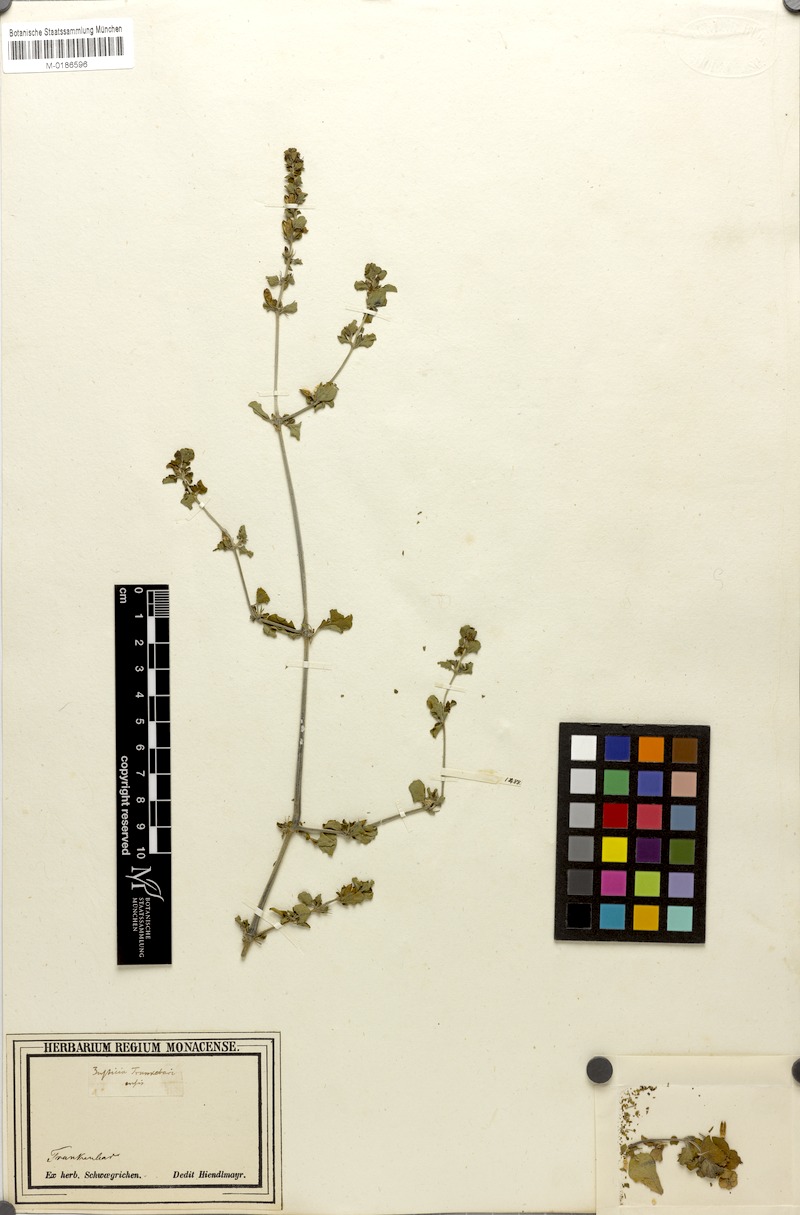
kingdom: Plantae
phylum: Tracheophyta
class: Magnoliopsida
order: Lamiales
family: Acanthaceae
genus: Justicia
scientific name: Justicia tranquebariensis
